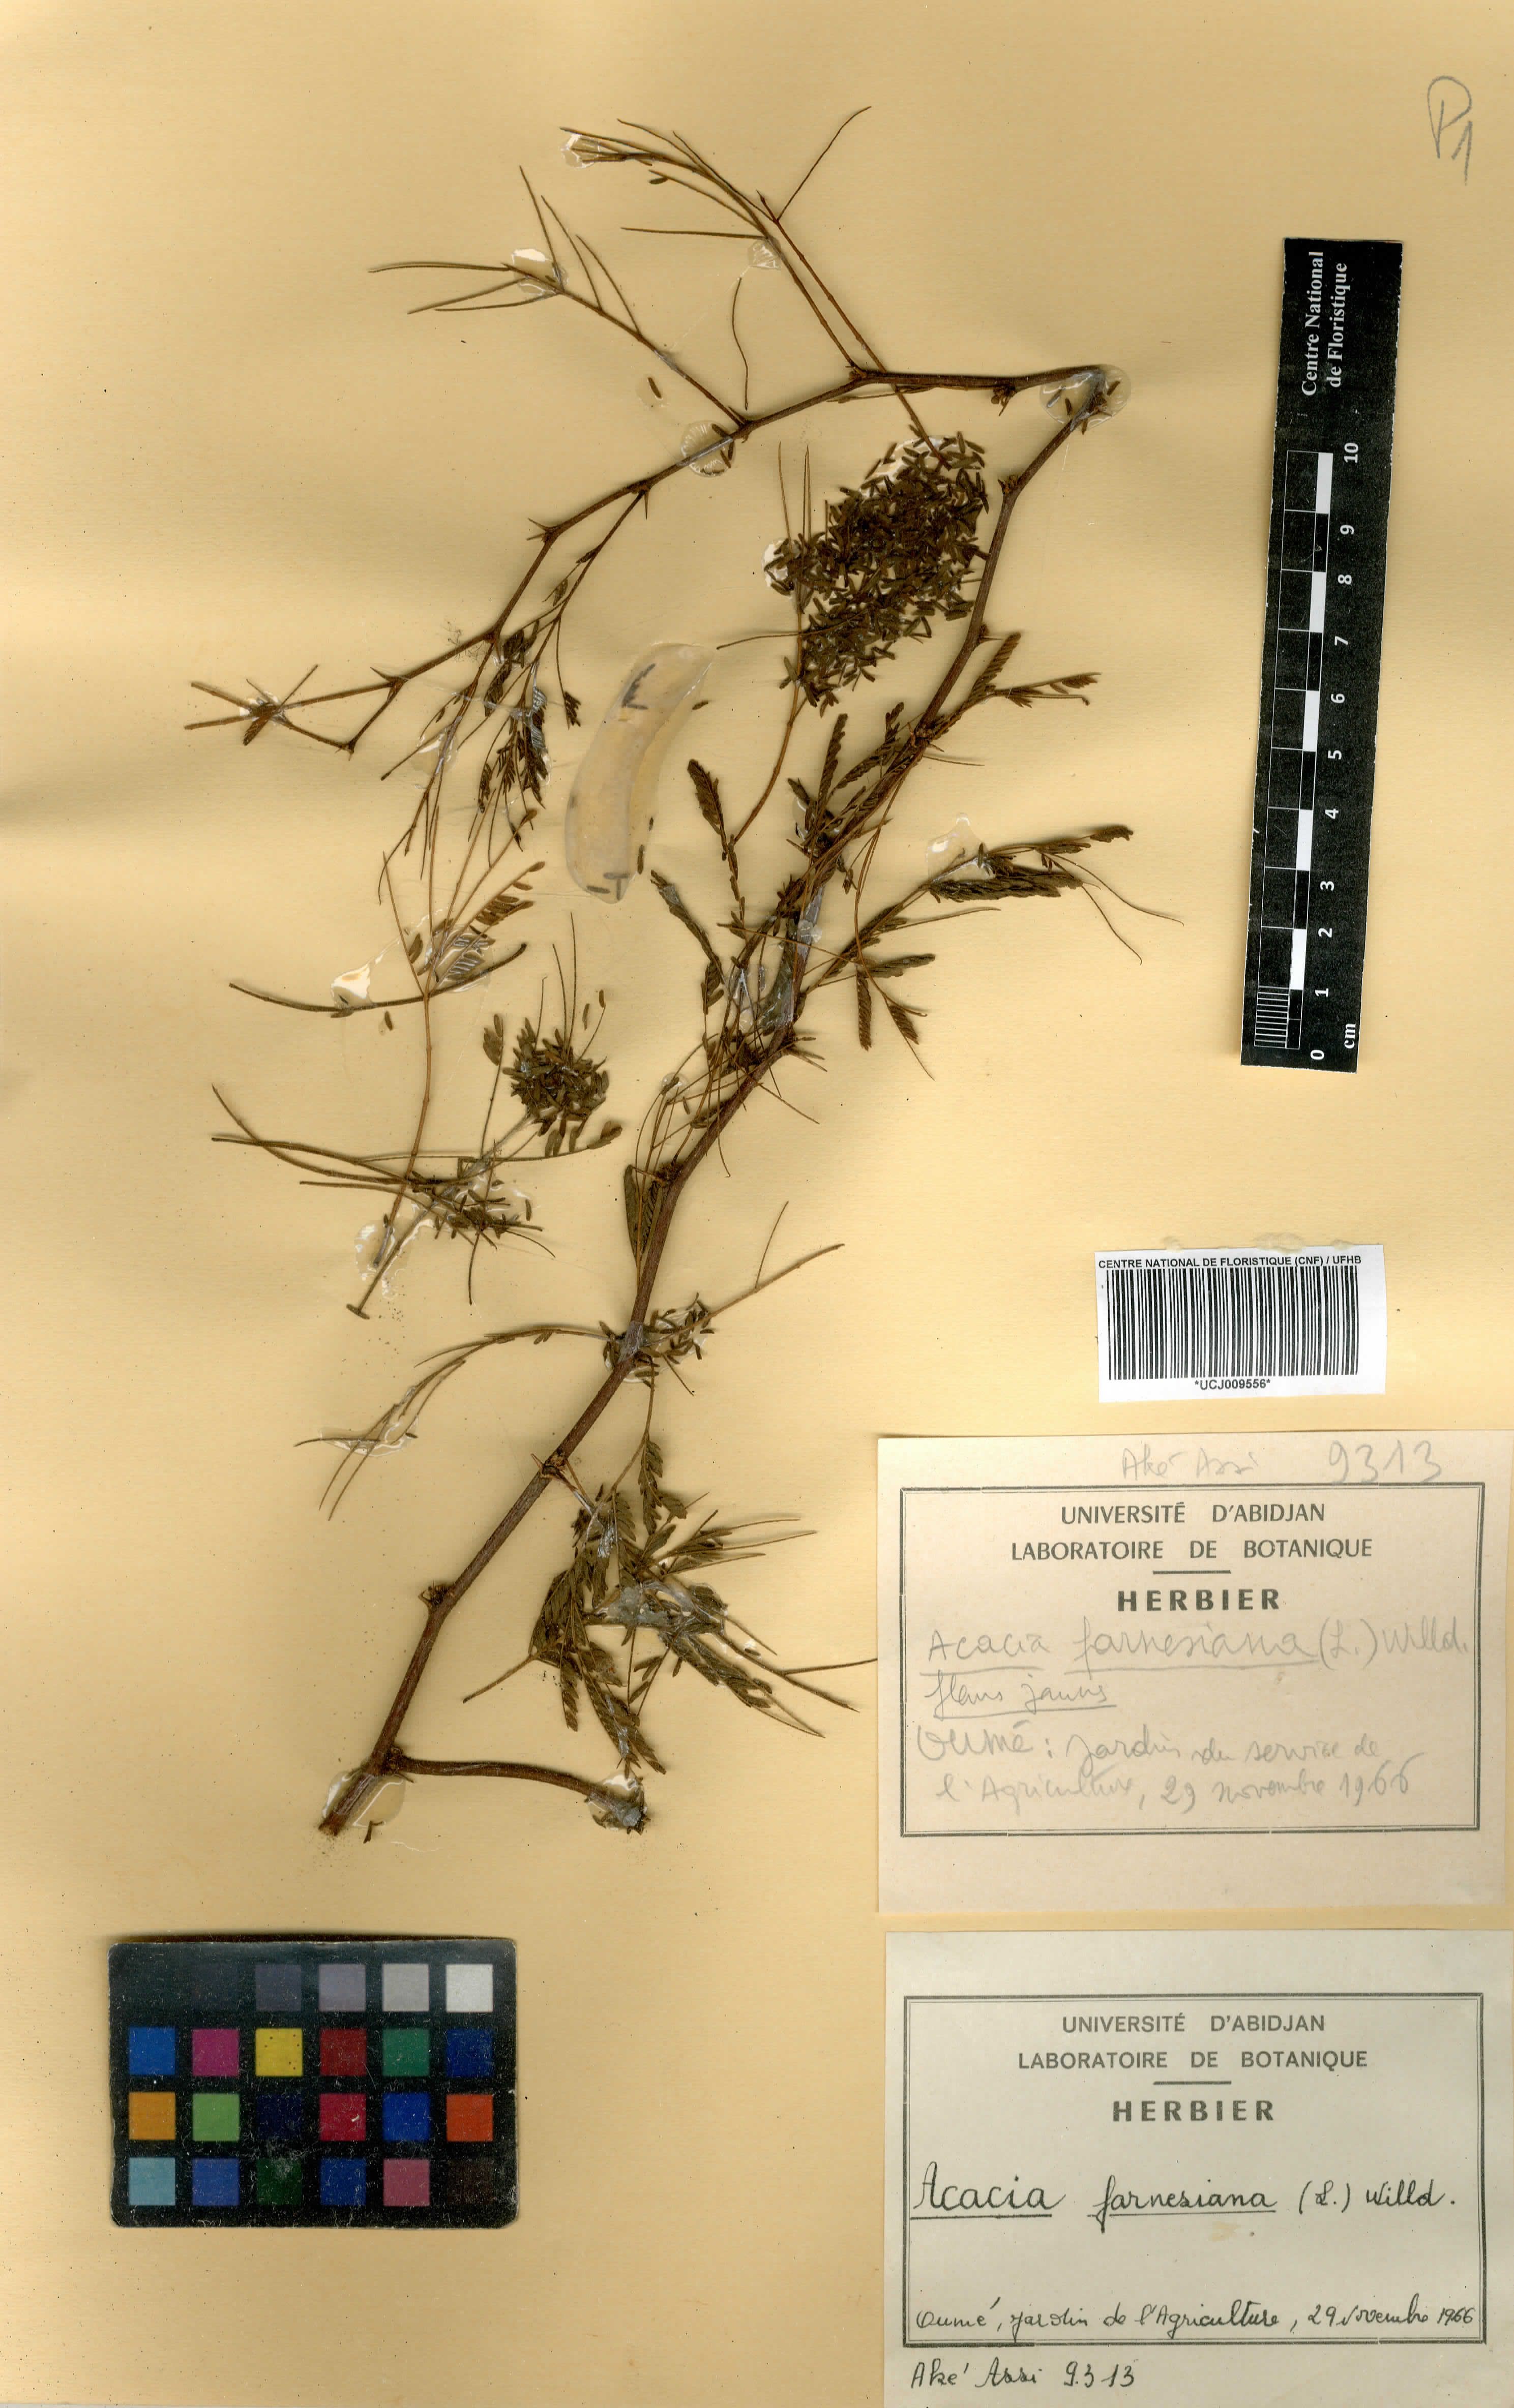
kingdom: Plantae
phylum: Tracheophyta
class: Magnoliopsida
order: Fabales
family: Fabaceae
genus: Vachellia
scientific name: Vachellia farnesiana
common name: Sweet acacia
